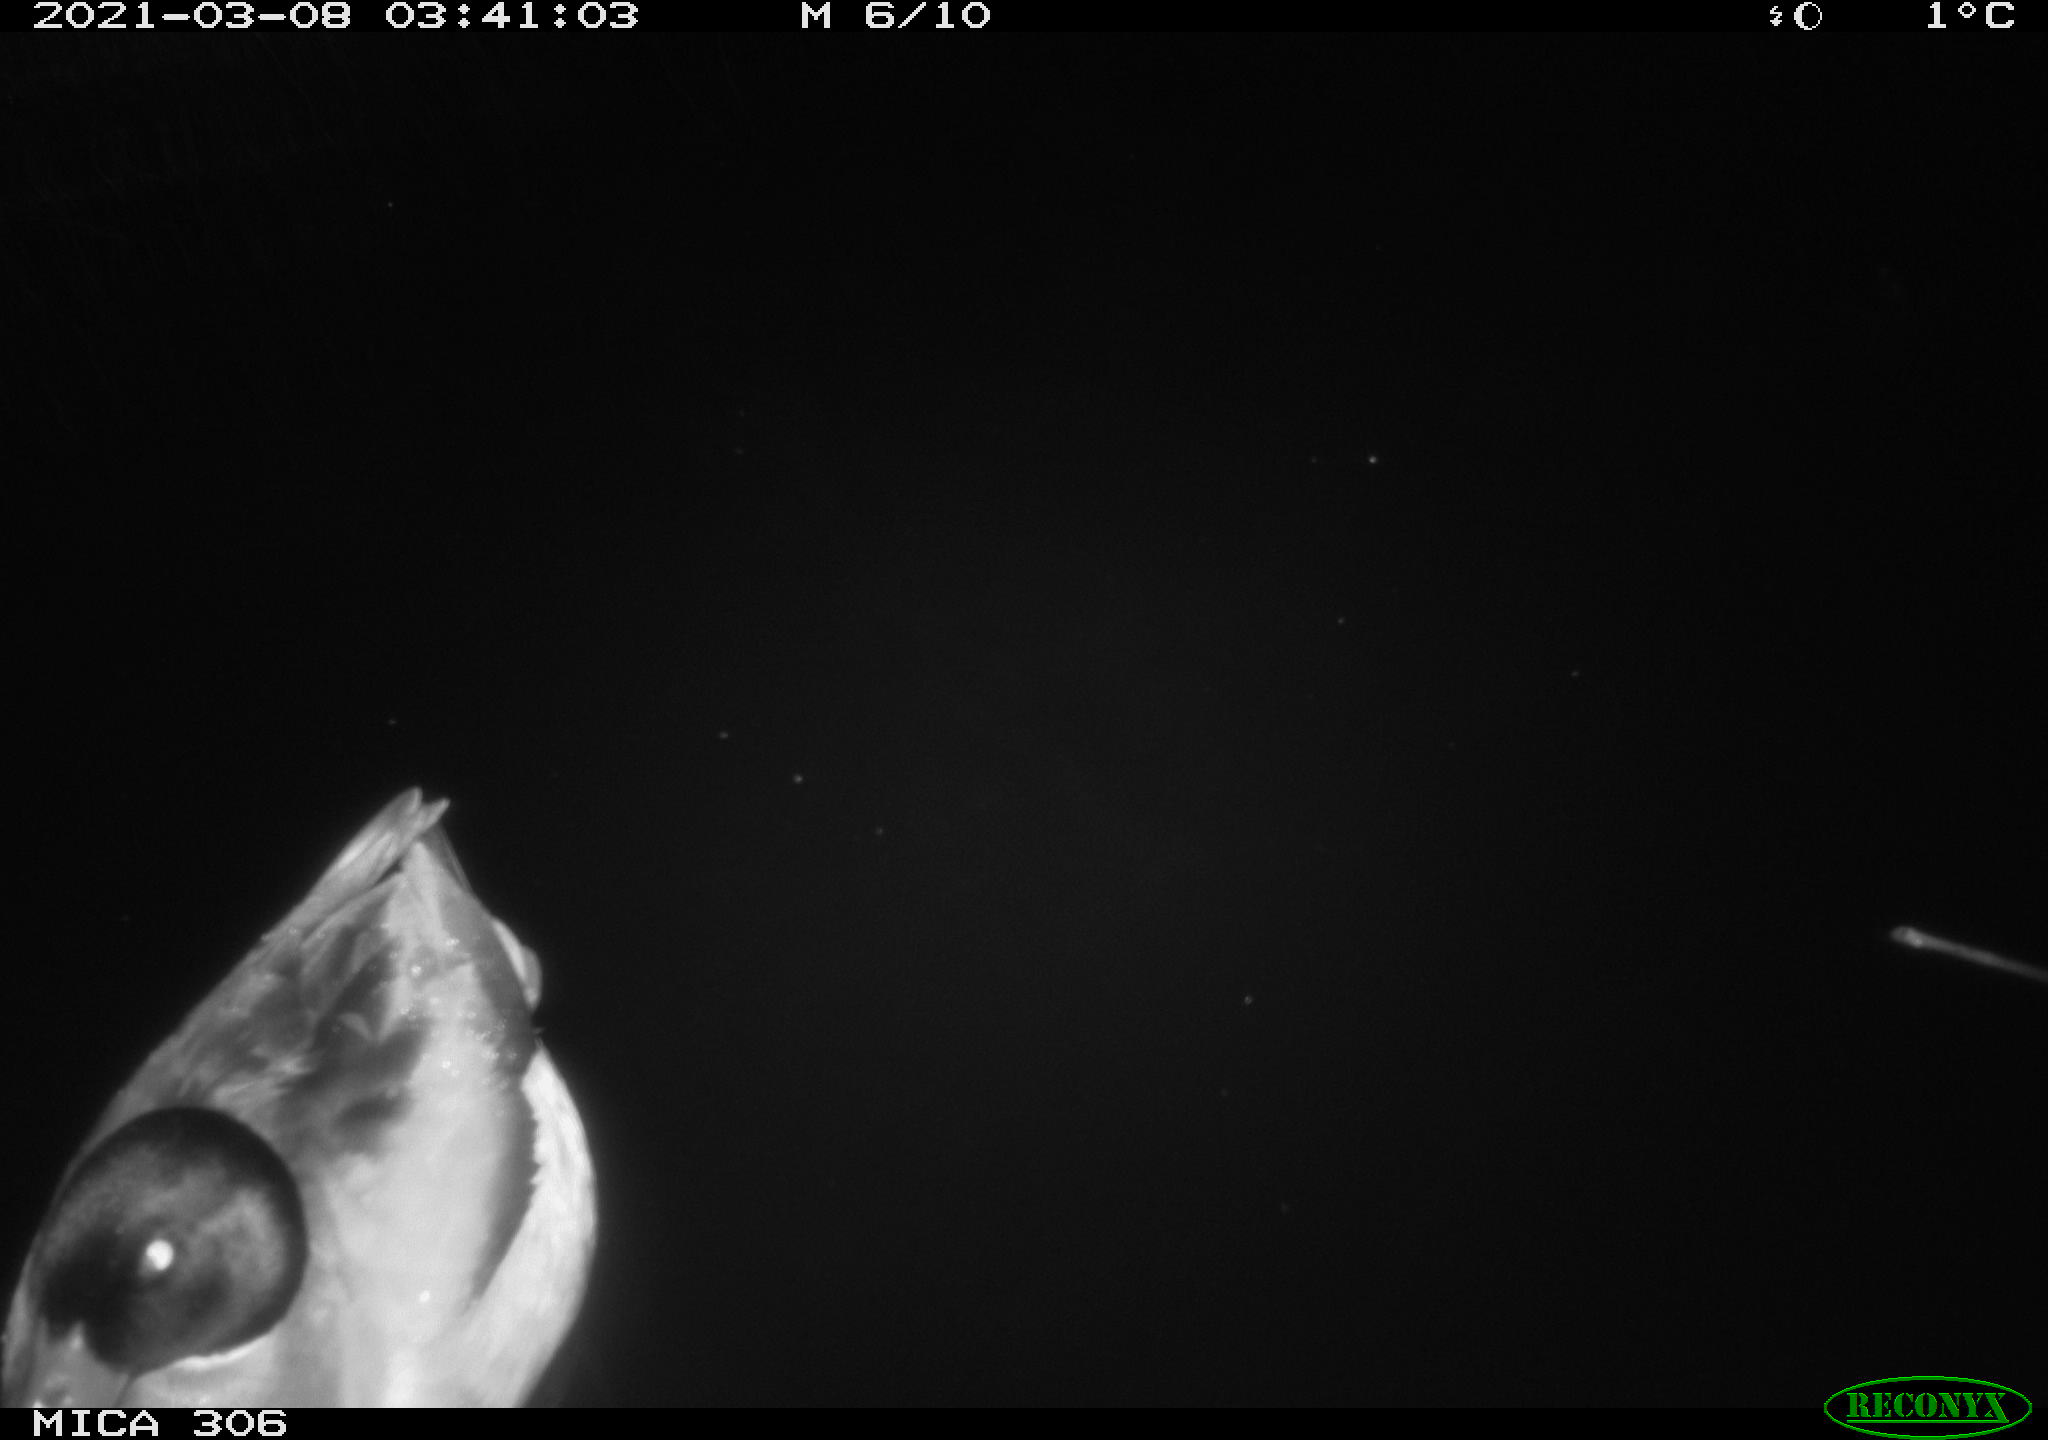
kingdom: Animalia
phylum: Chordata
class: Aves
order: Anseriformes
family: Anatidae
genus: Anas
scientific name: Anas platyrhynchos
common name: Mallard
